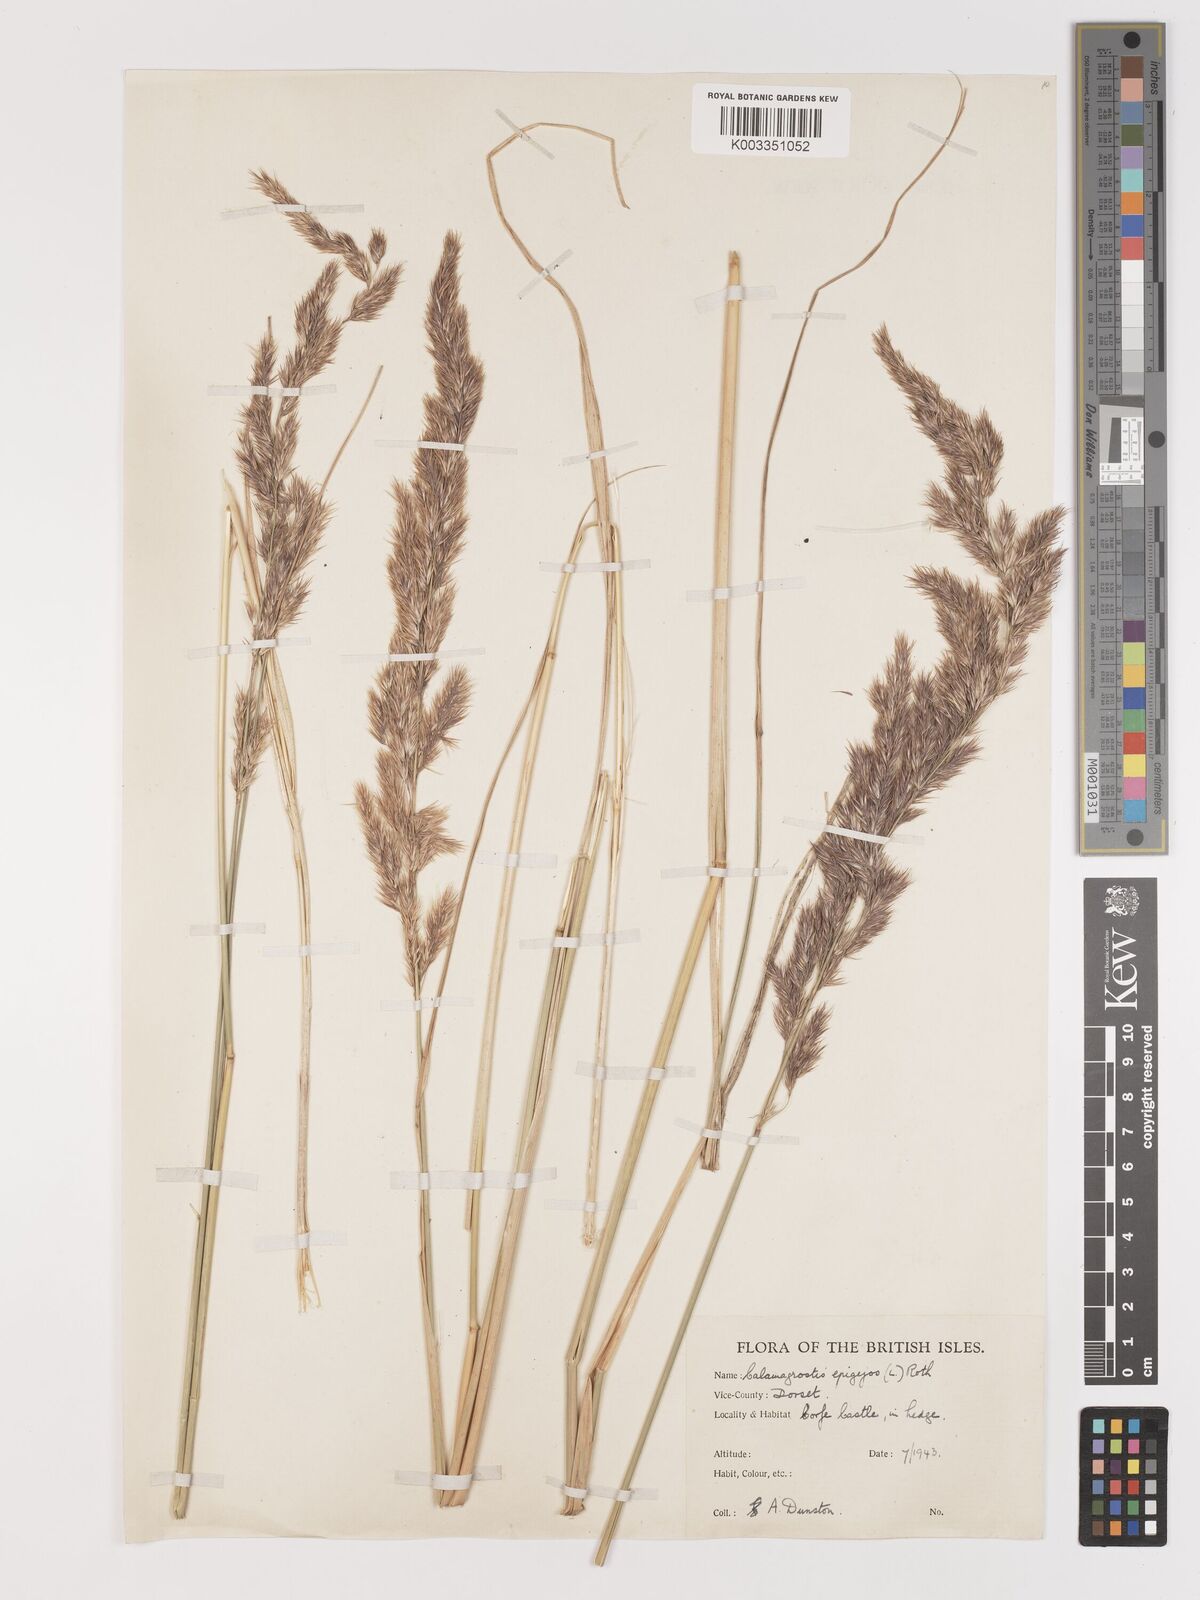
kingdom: Plantae
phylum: Tracheophyta
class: Liliopsida
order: Poales
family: Poaceae
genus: Calamagrostis
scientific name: Calamagrostis epigejos
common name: Wood small-reed
